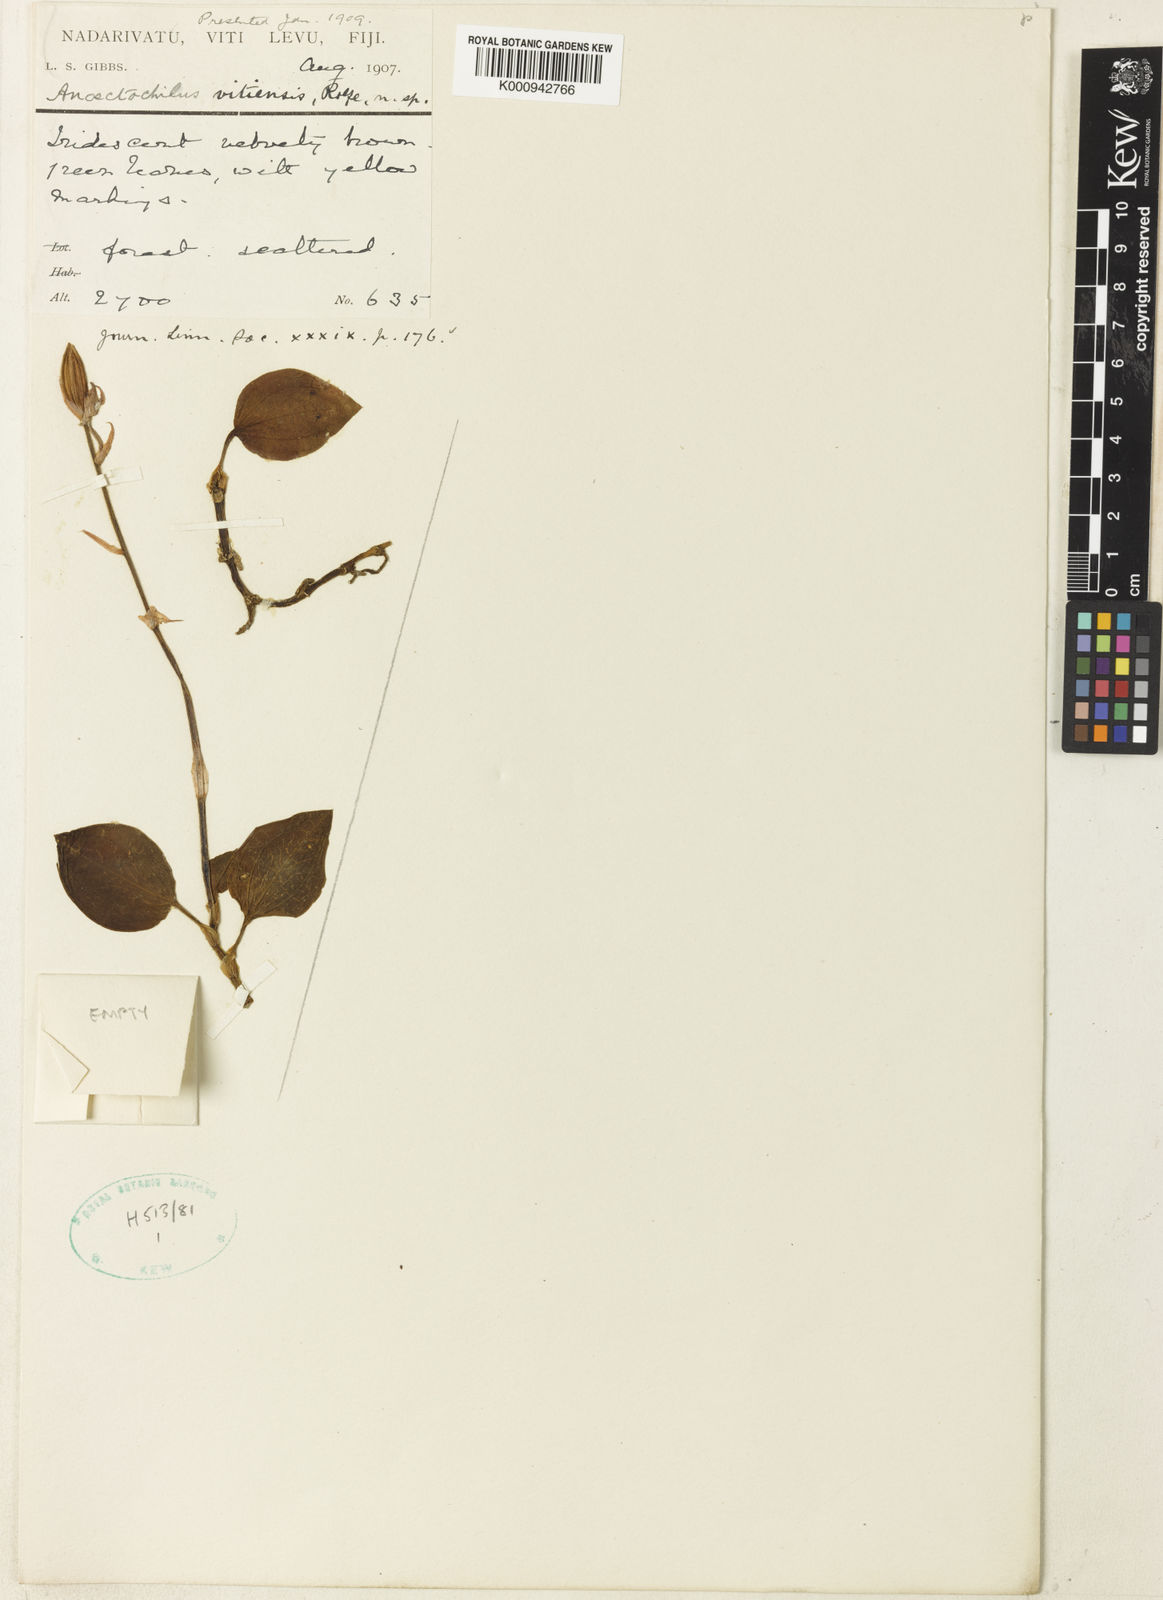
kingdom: Plantae
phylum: Tracheophyta
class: Liliopsida
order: Asparagales
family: Orchidaceae
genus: Anoectochilus
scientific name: Anoectochilus imitans
